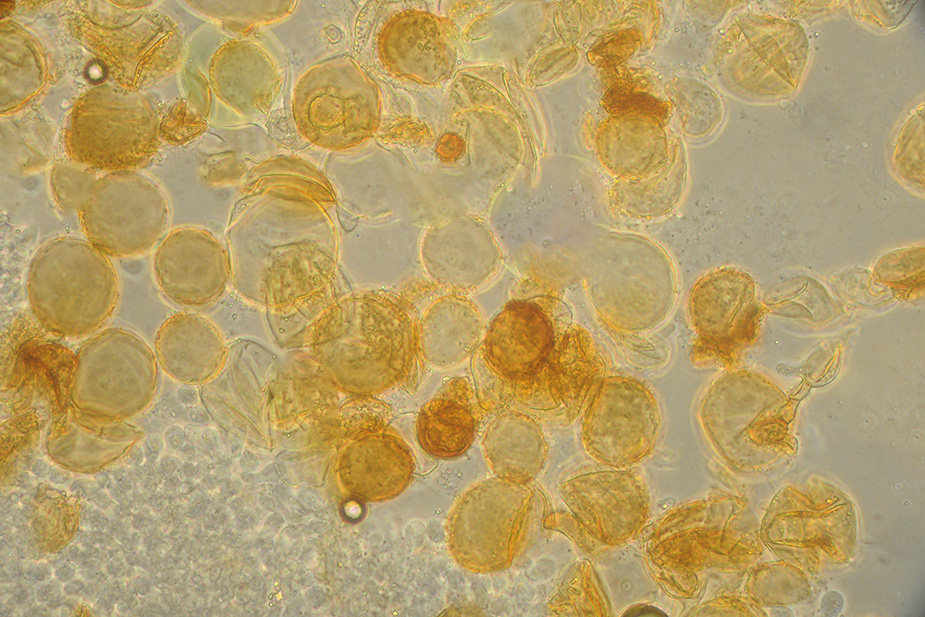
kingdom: Fungi
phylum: Basidiomycota
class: Agaricomycetes
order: Agaricales
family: Psathyrellaceae
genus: Coprinellus
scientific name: Coprinellus pusillulus
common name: lillebitte blækhat
